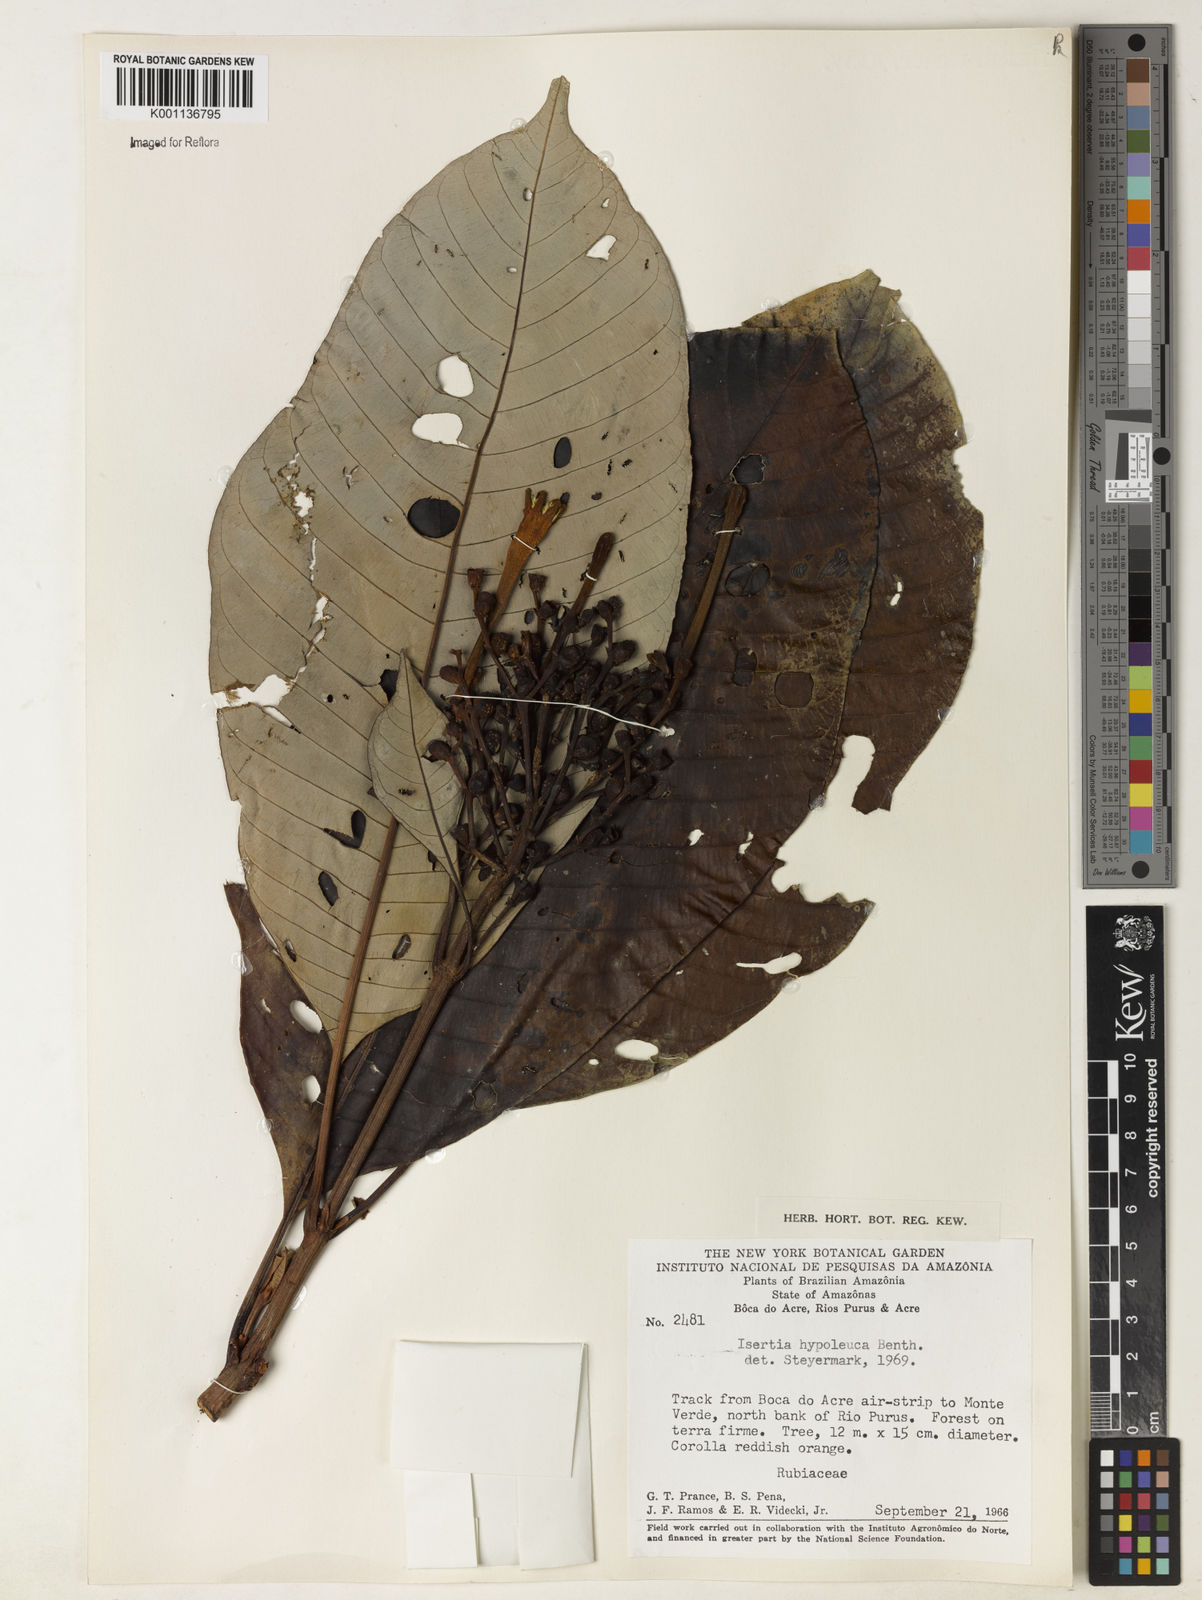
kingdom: Plantae
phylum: Tracheophyta
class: Magnoliopsida
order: Gentianales
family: Rubiaceae
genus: Isertia
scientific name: Isertia hypoleuca
